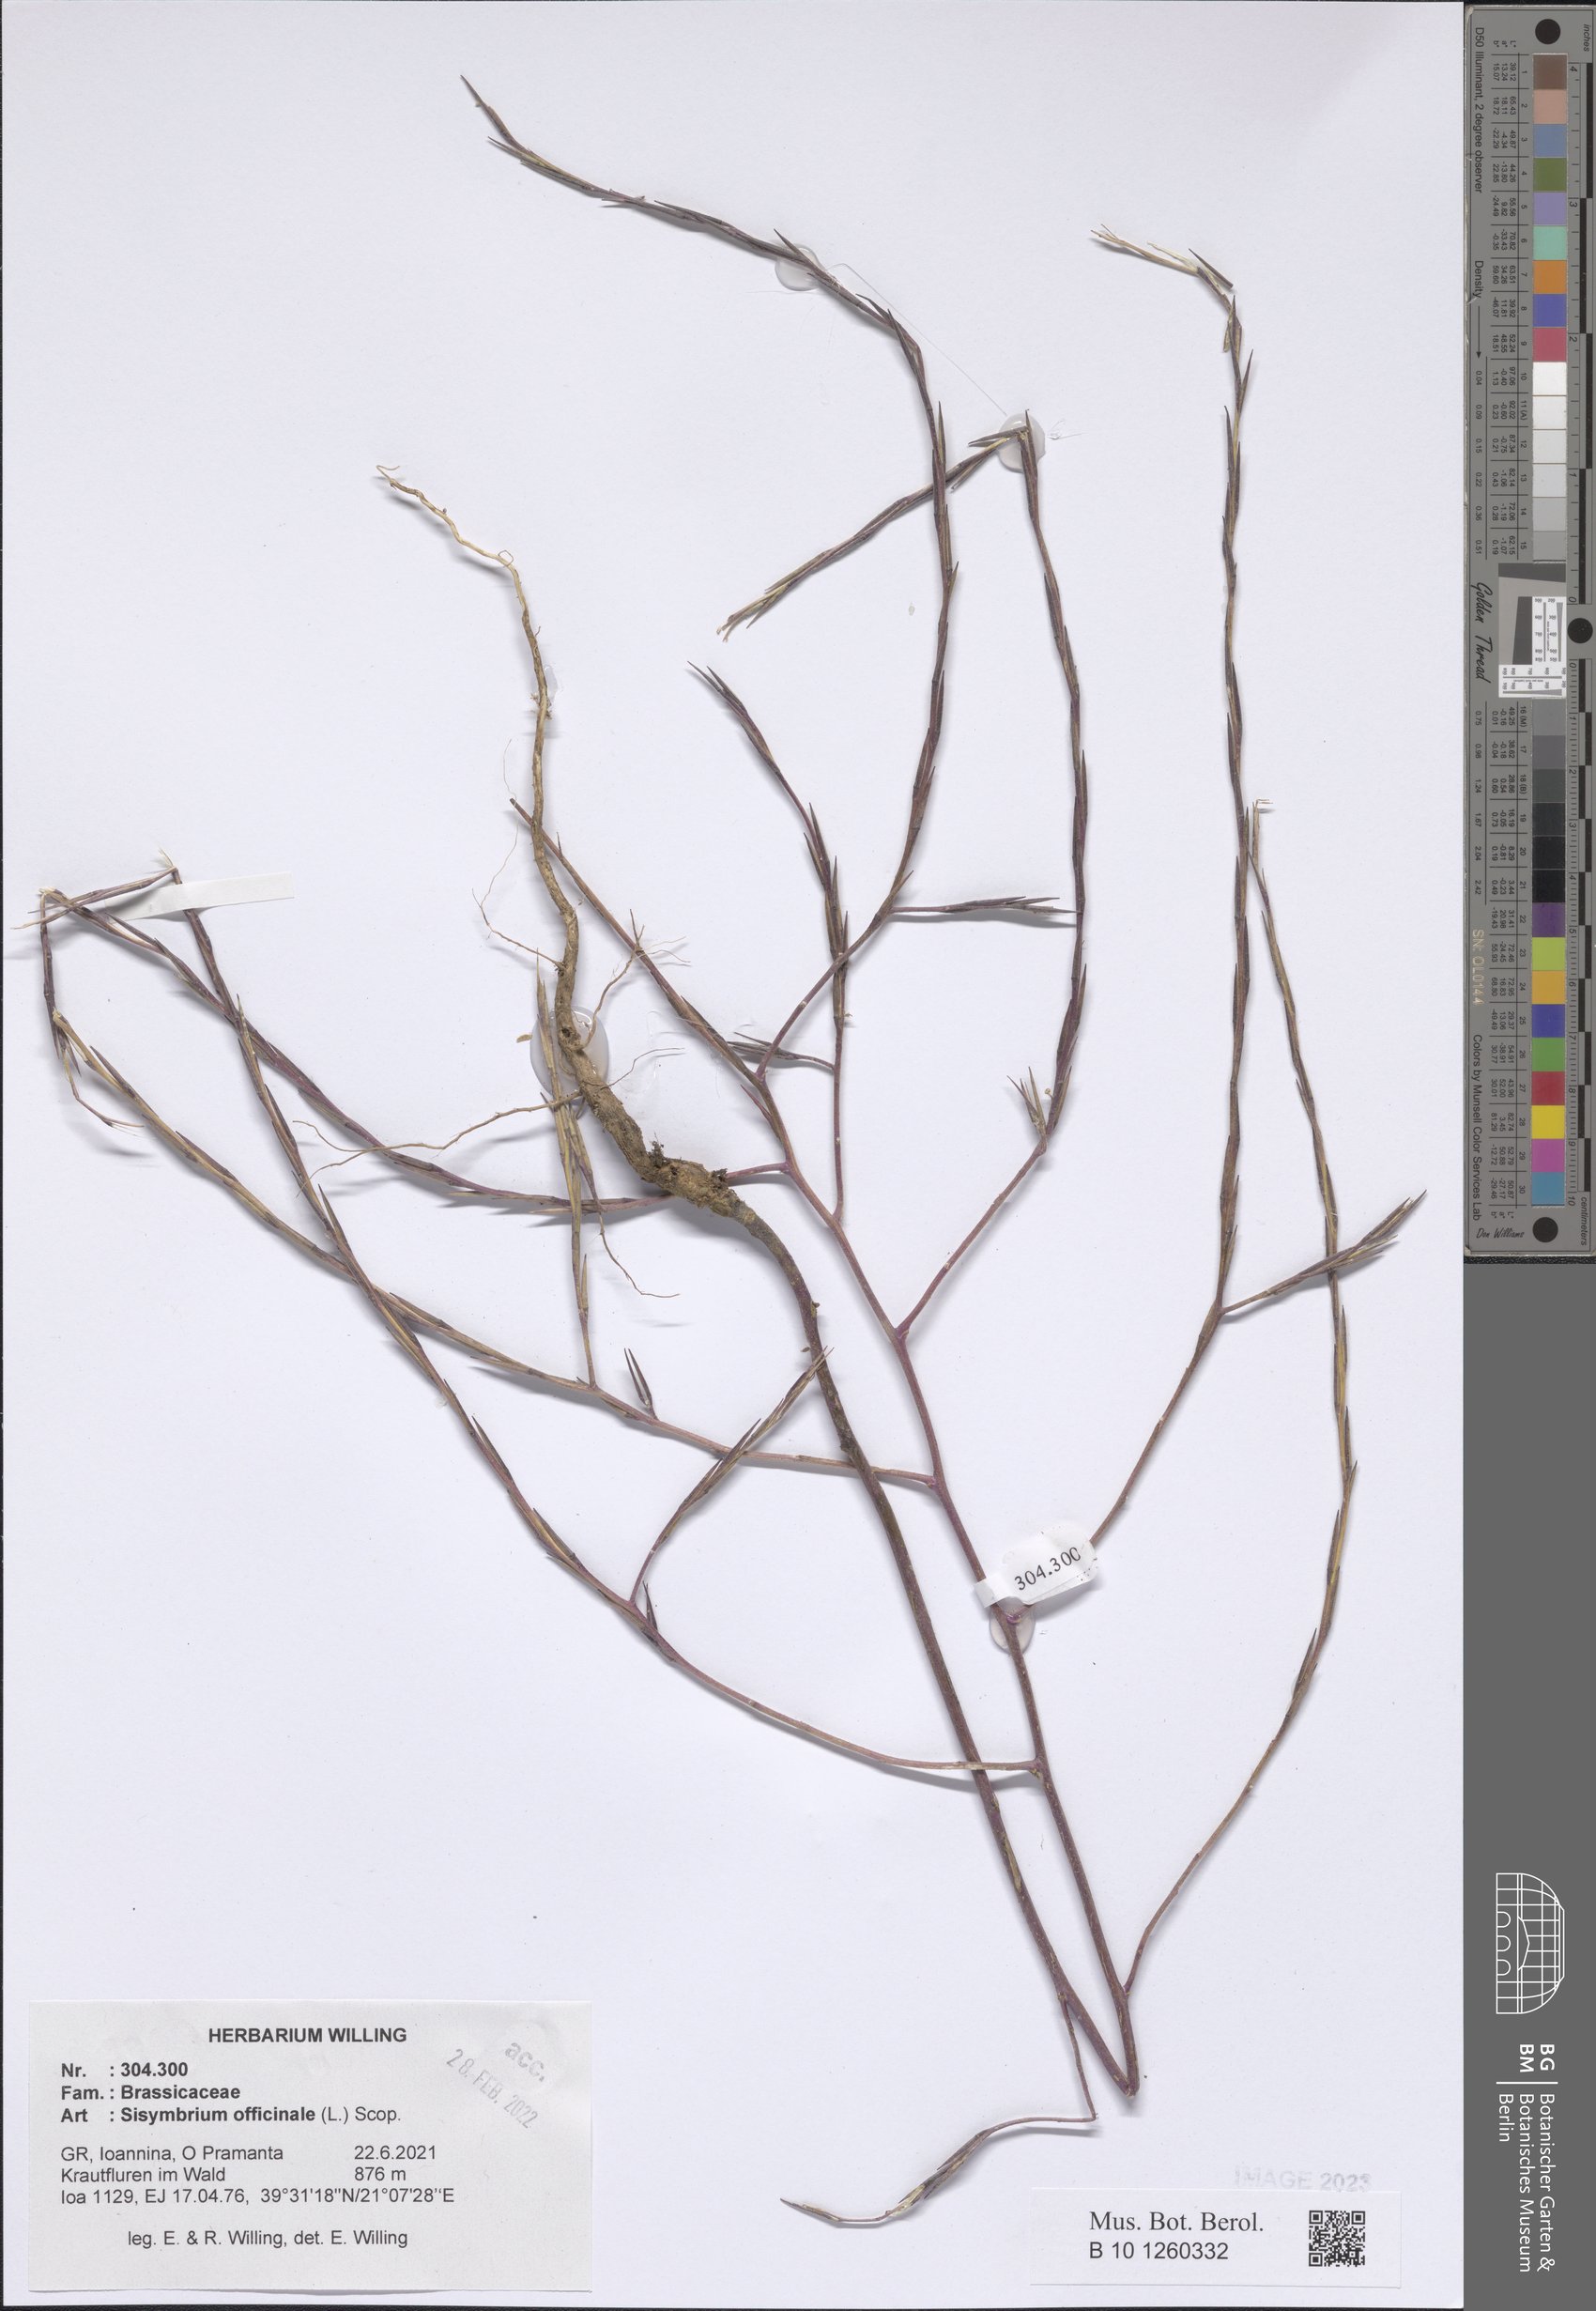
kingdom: Plantae
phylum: Tracheophyta
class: Magnoliopsida
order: Brassicales
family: Brassicaceae
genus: Sisymbrium
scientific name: Sisymbrium officinale
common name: Hedge mustard
